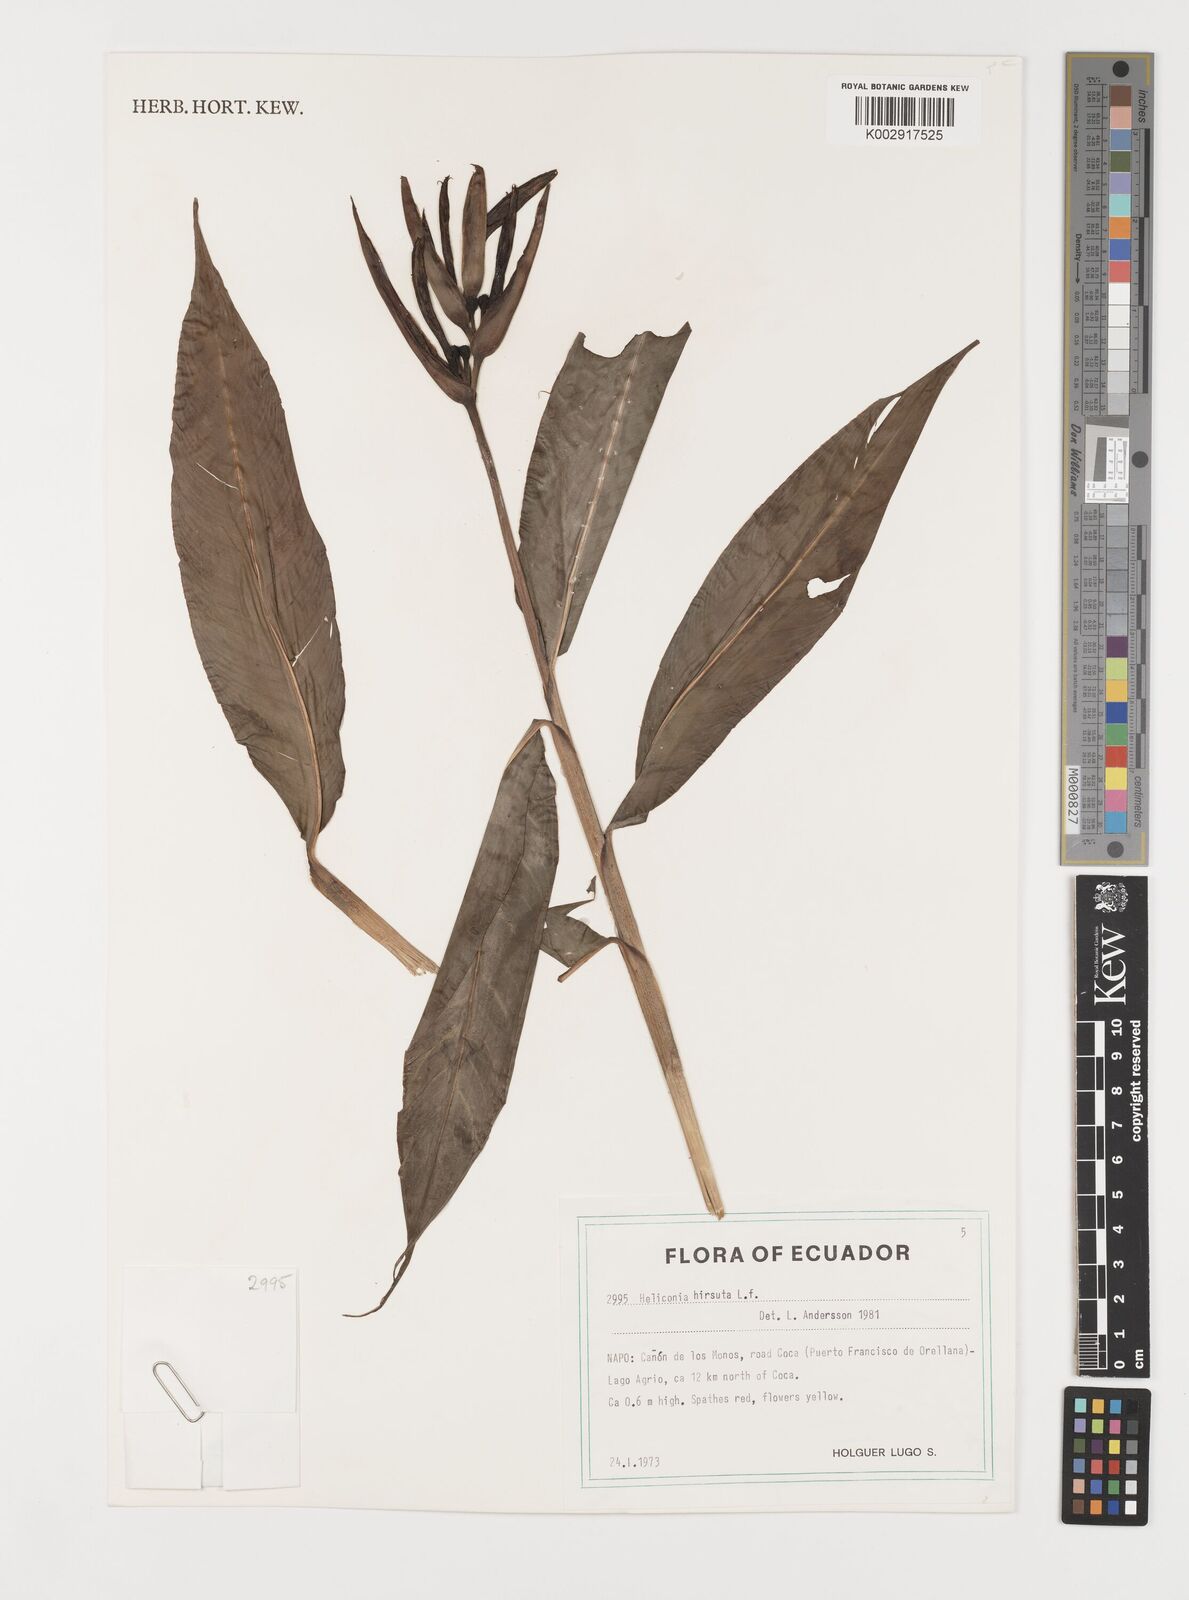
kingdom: Plantae
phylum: Tracheophyta
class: Liliopsida
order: Zingiberales
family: Heliconiaceae
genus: Heliconia
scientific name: Heliconia hirsuta
